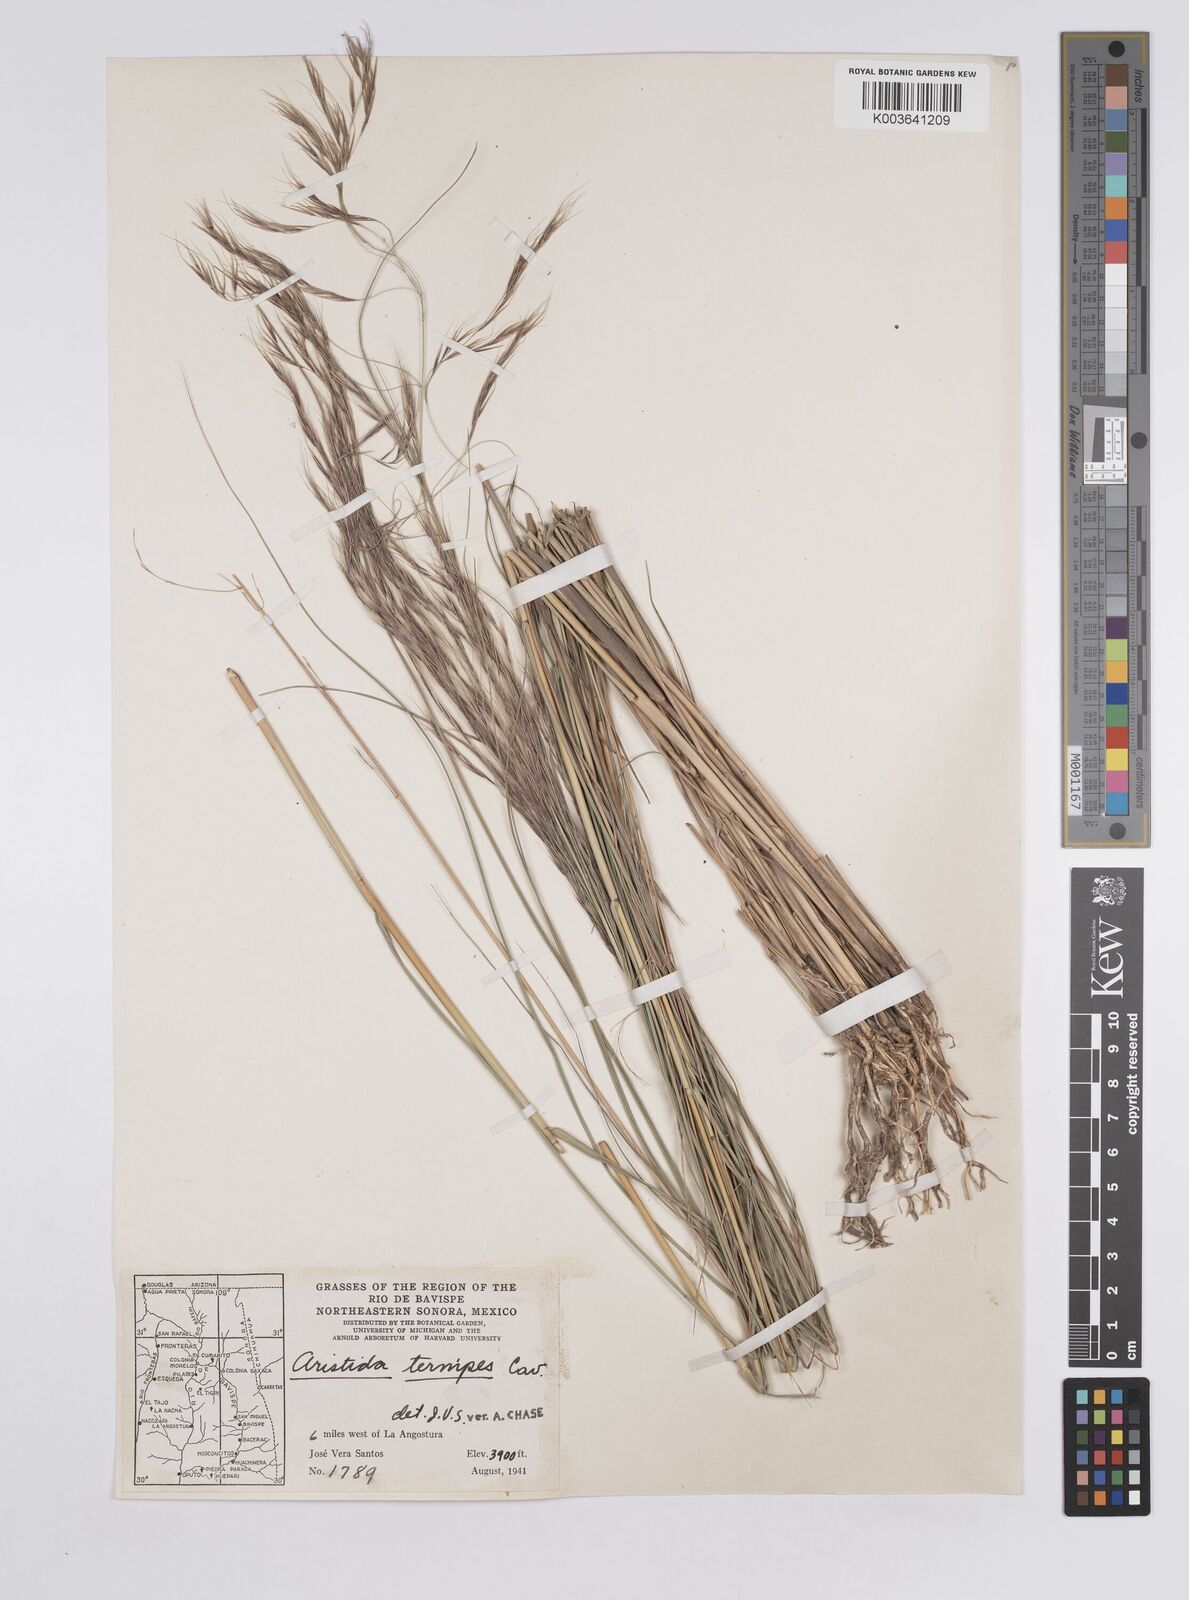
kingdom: Plantae
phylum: Tracheophyta
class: Liliopsida
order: Poales
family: Poaceae
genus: Aristida
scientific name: Aristida
